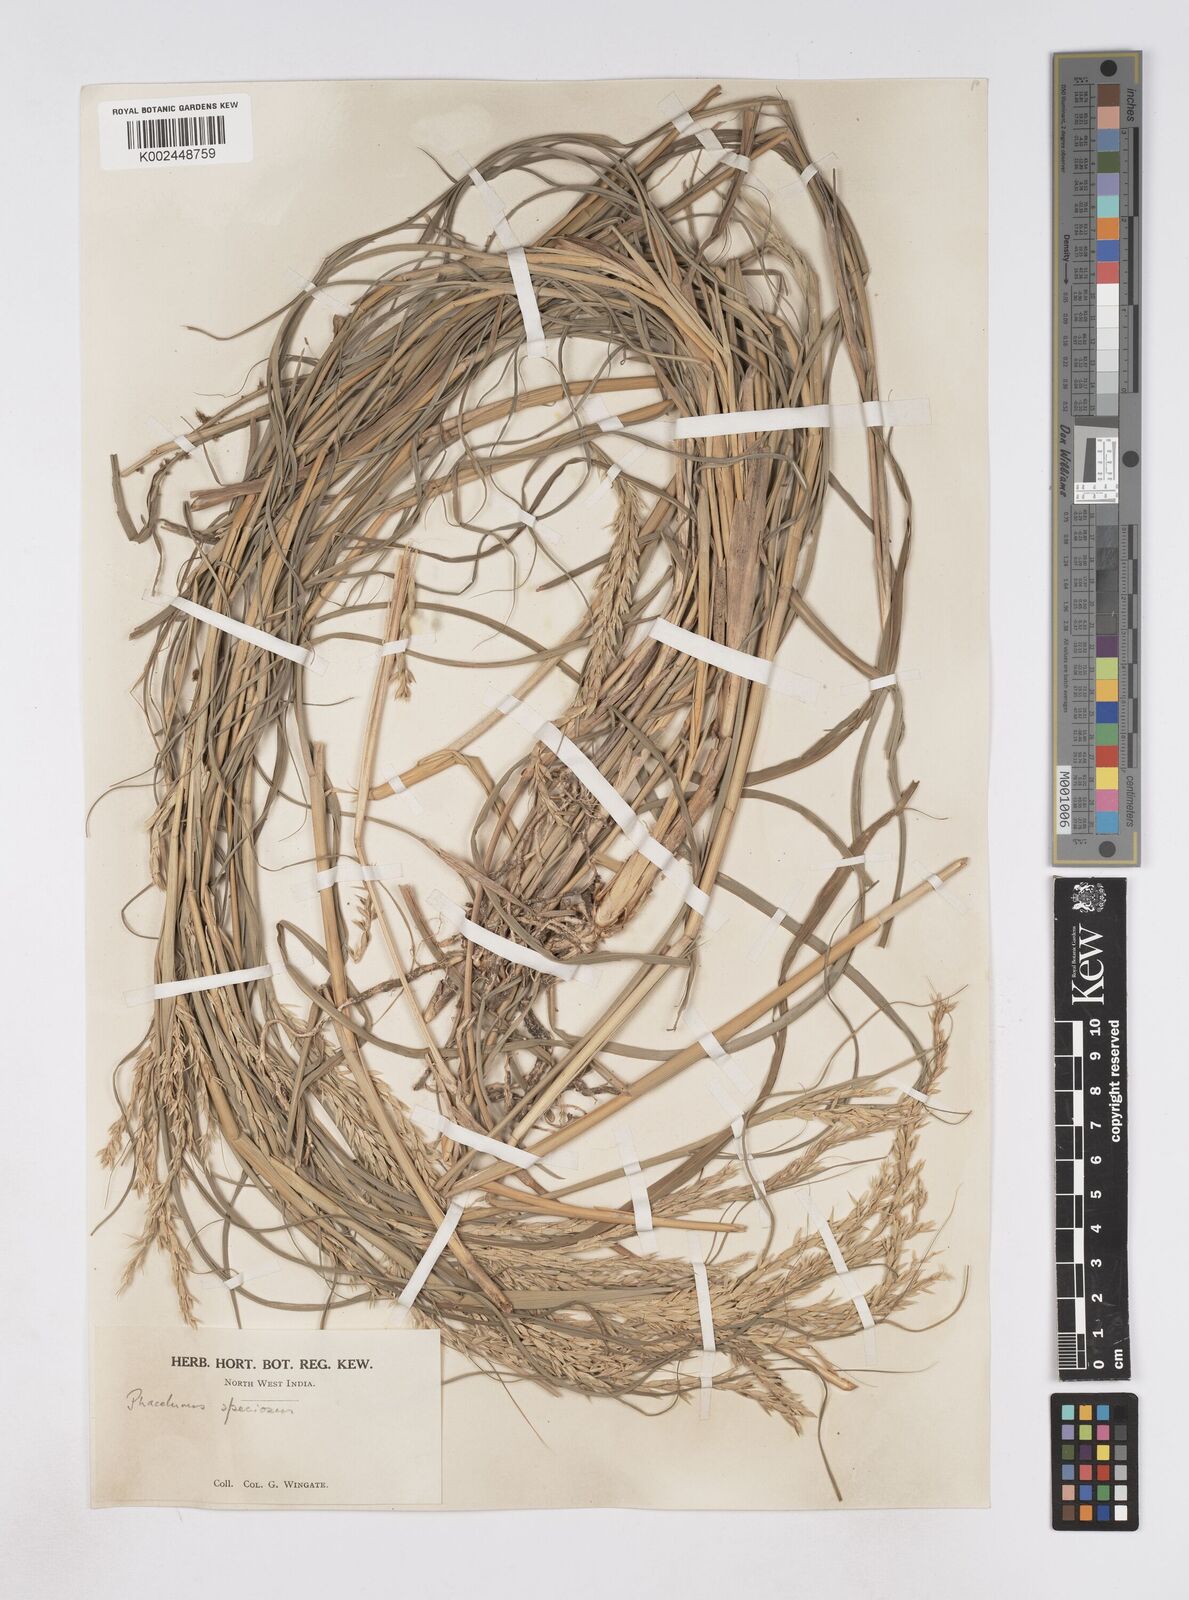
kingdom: Plantae
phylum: Tracheophyta
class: Liliopsida
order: Poales
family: Poaceae
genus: Phacelurus
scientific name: Phacelurus speciosus
